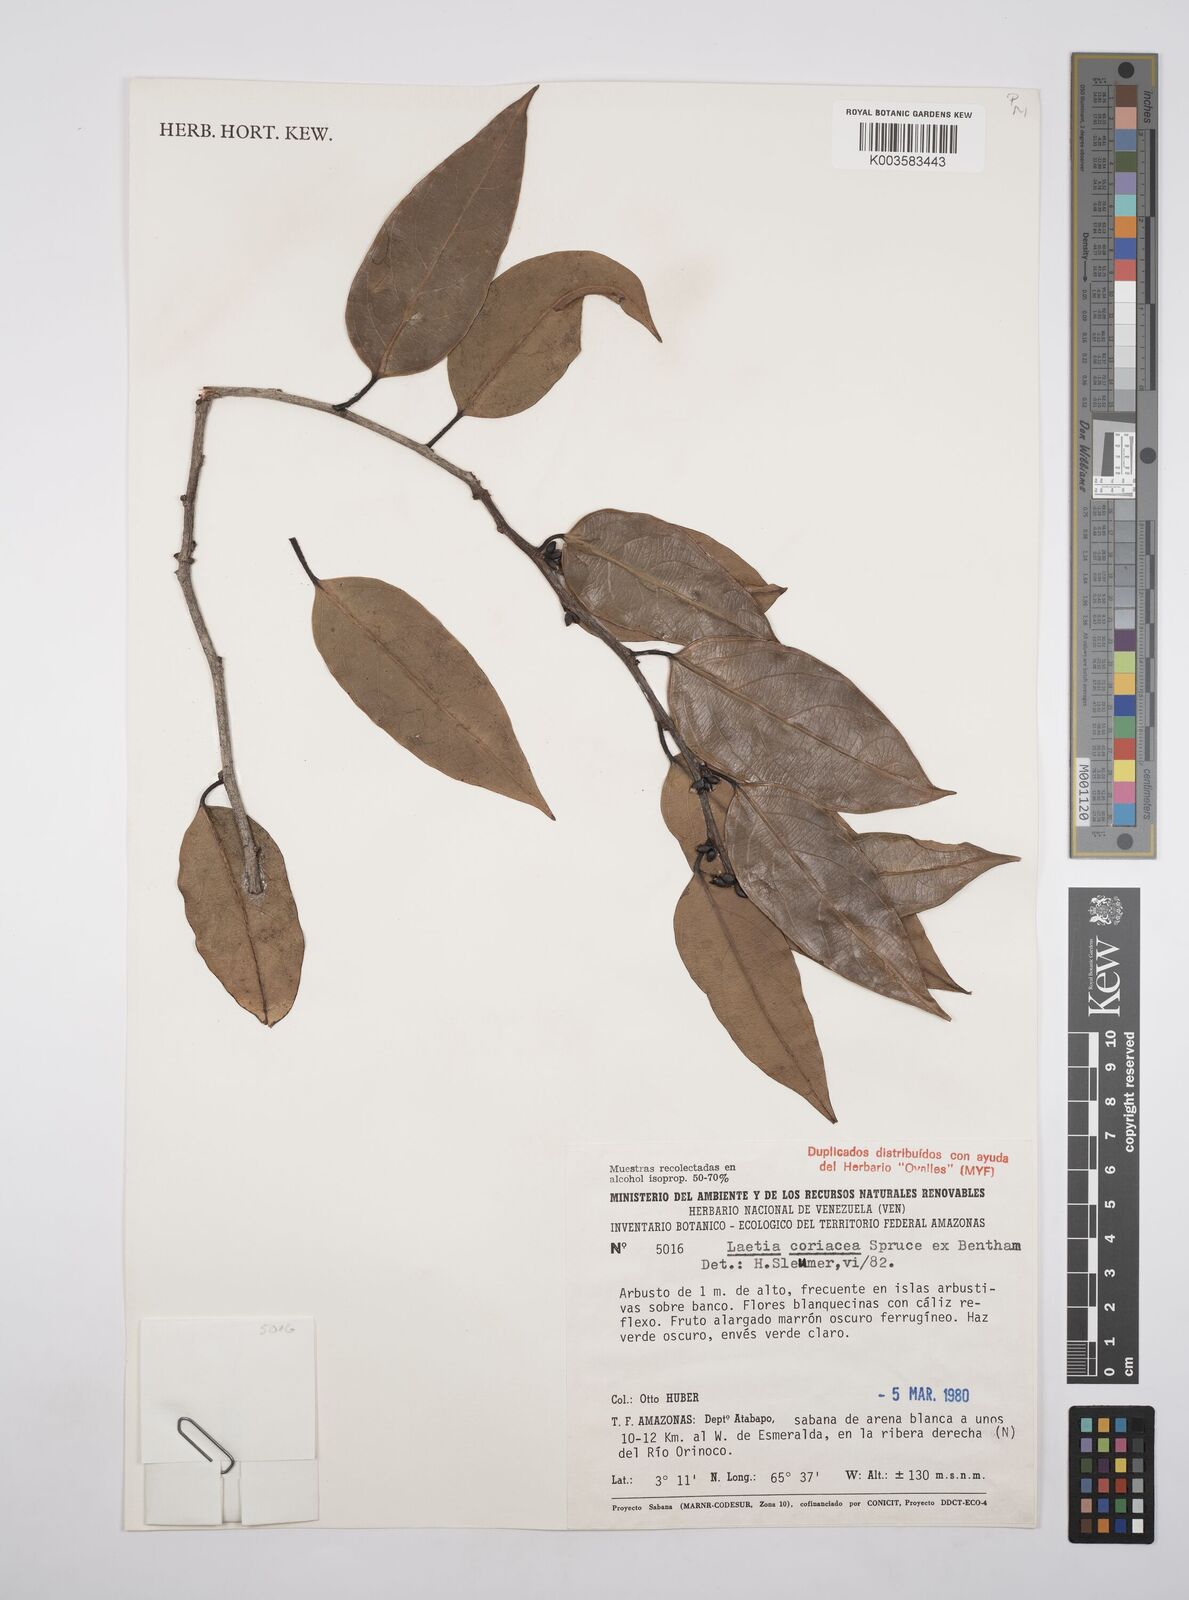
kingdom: Plantae
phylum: Tracheophyta
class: Magnoliopsida
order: Malpighiales
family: Salicaceae
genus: Irenodendron
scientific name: Irenodendron coriaceum
